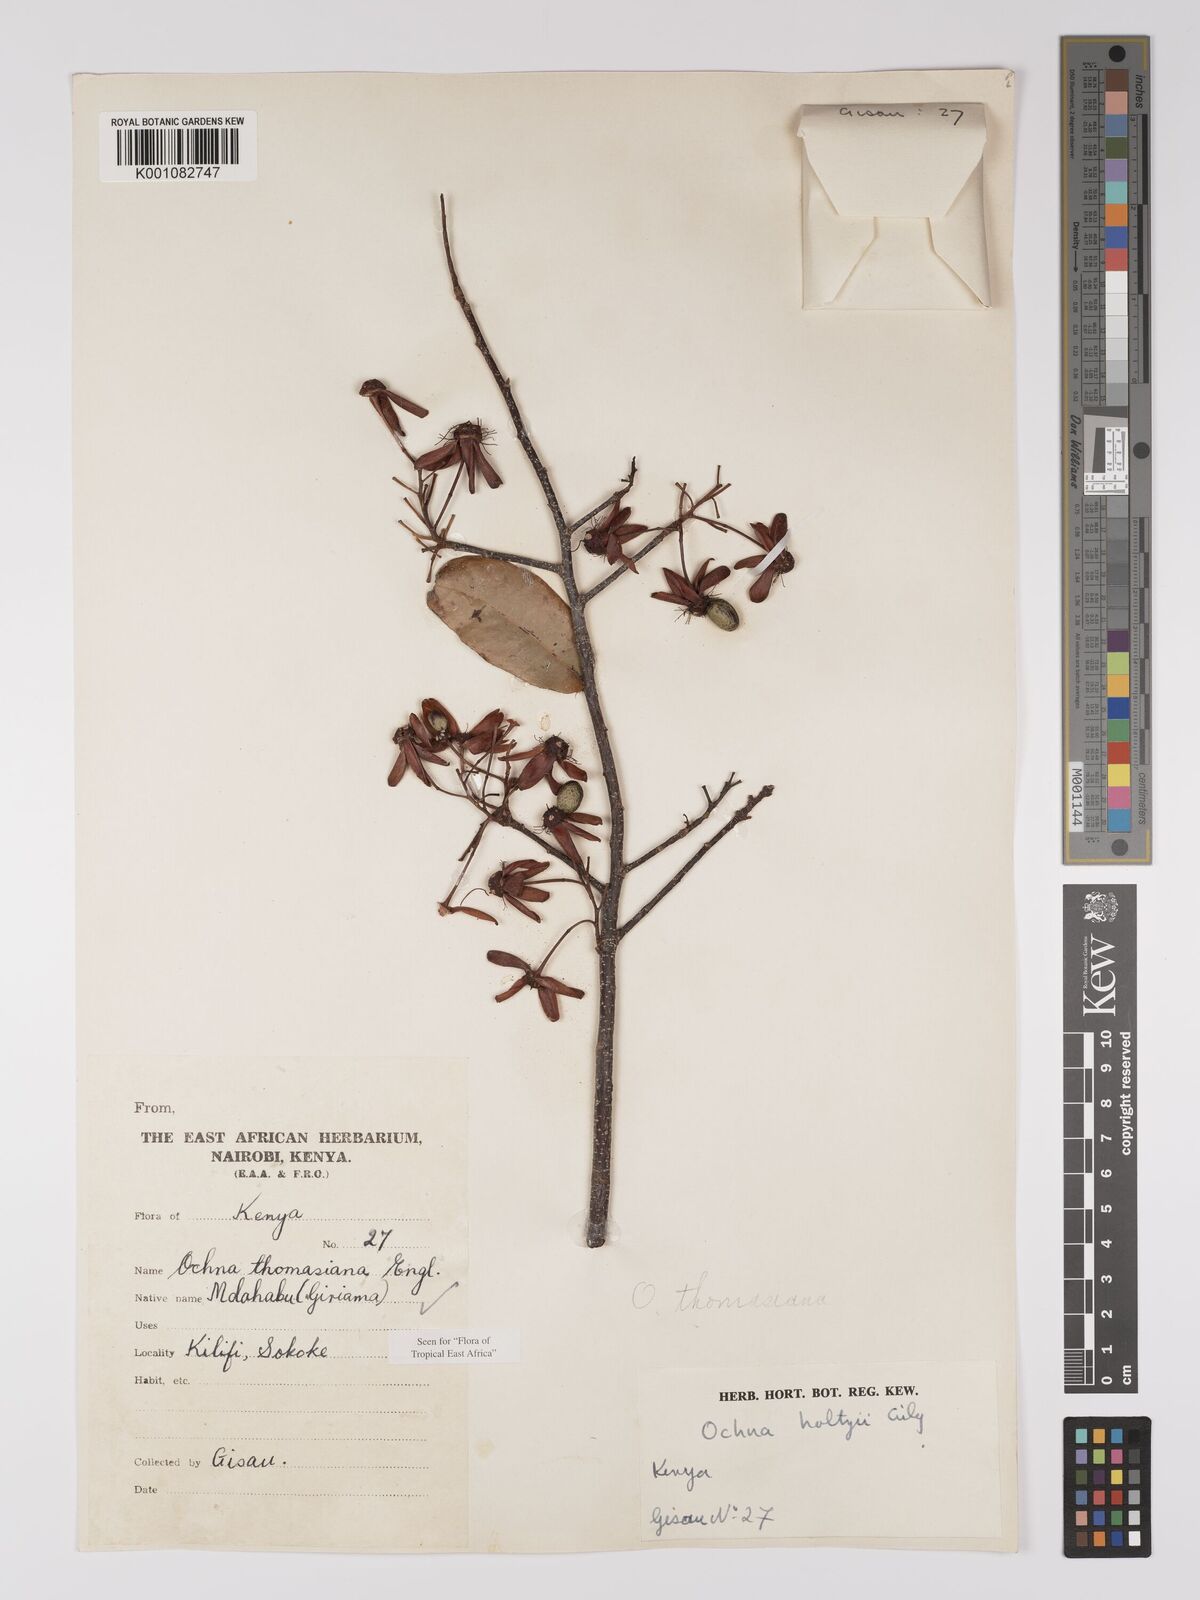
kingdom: Plantae
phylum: Tracheophyta
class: Magnoliopsida
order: Malpighiales
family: Ochnaceae
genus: Ochna
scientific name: Ochna thomasiana
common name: Thomas' bird's-eye bush
